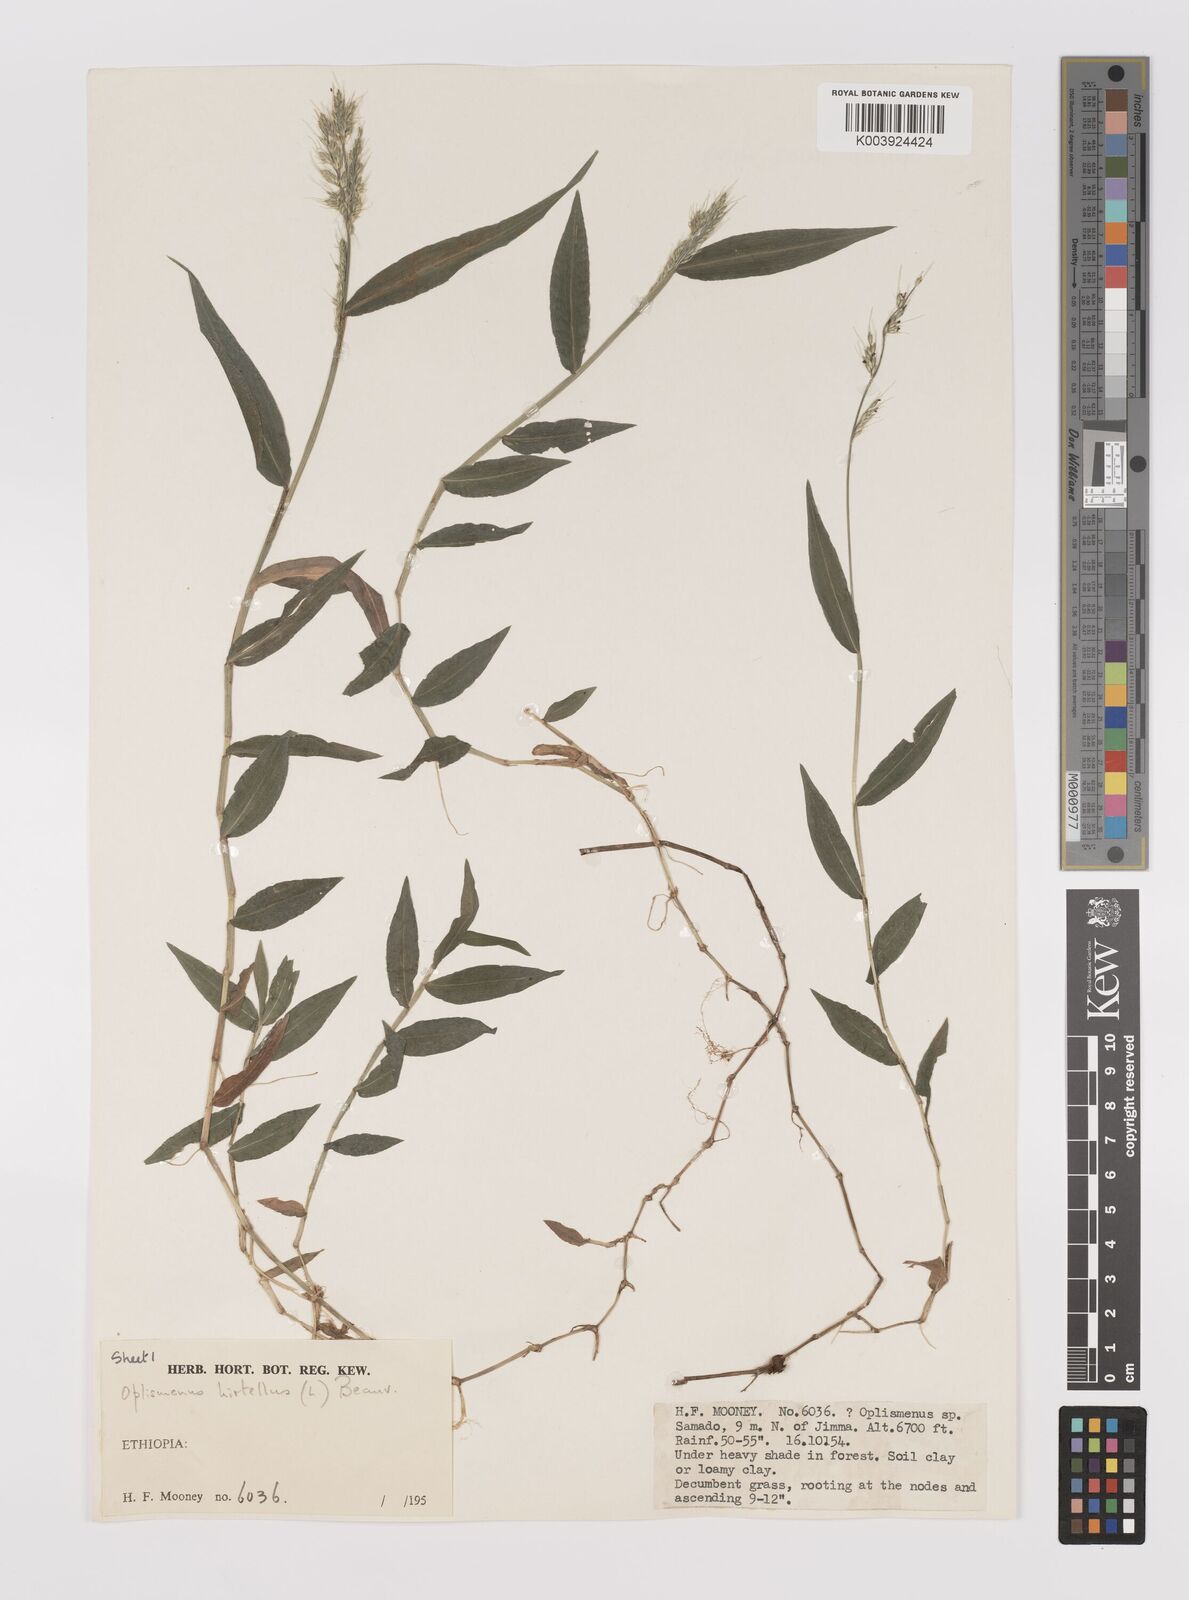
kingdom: Plantae
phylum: Tracheophyta
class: Liliopsida
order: Poales
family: Poaceae
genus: Oplismenus
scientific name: Oplismenus hirtellus
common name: Basketgrass
